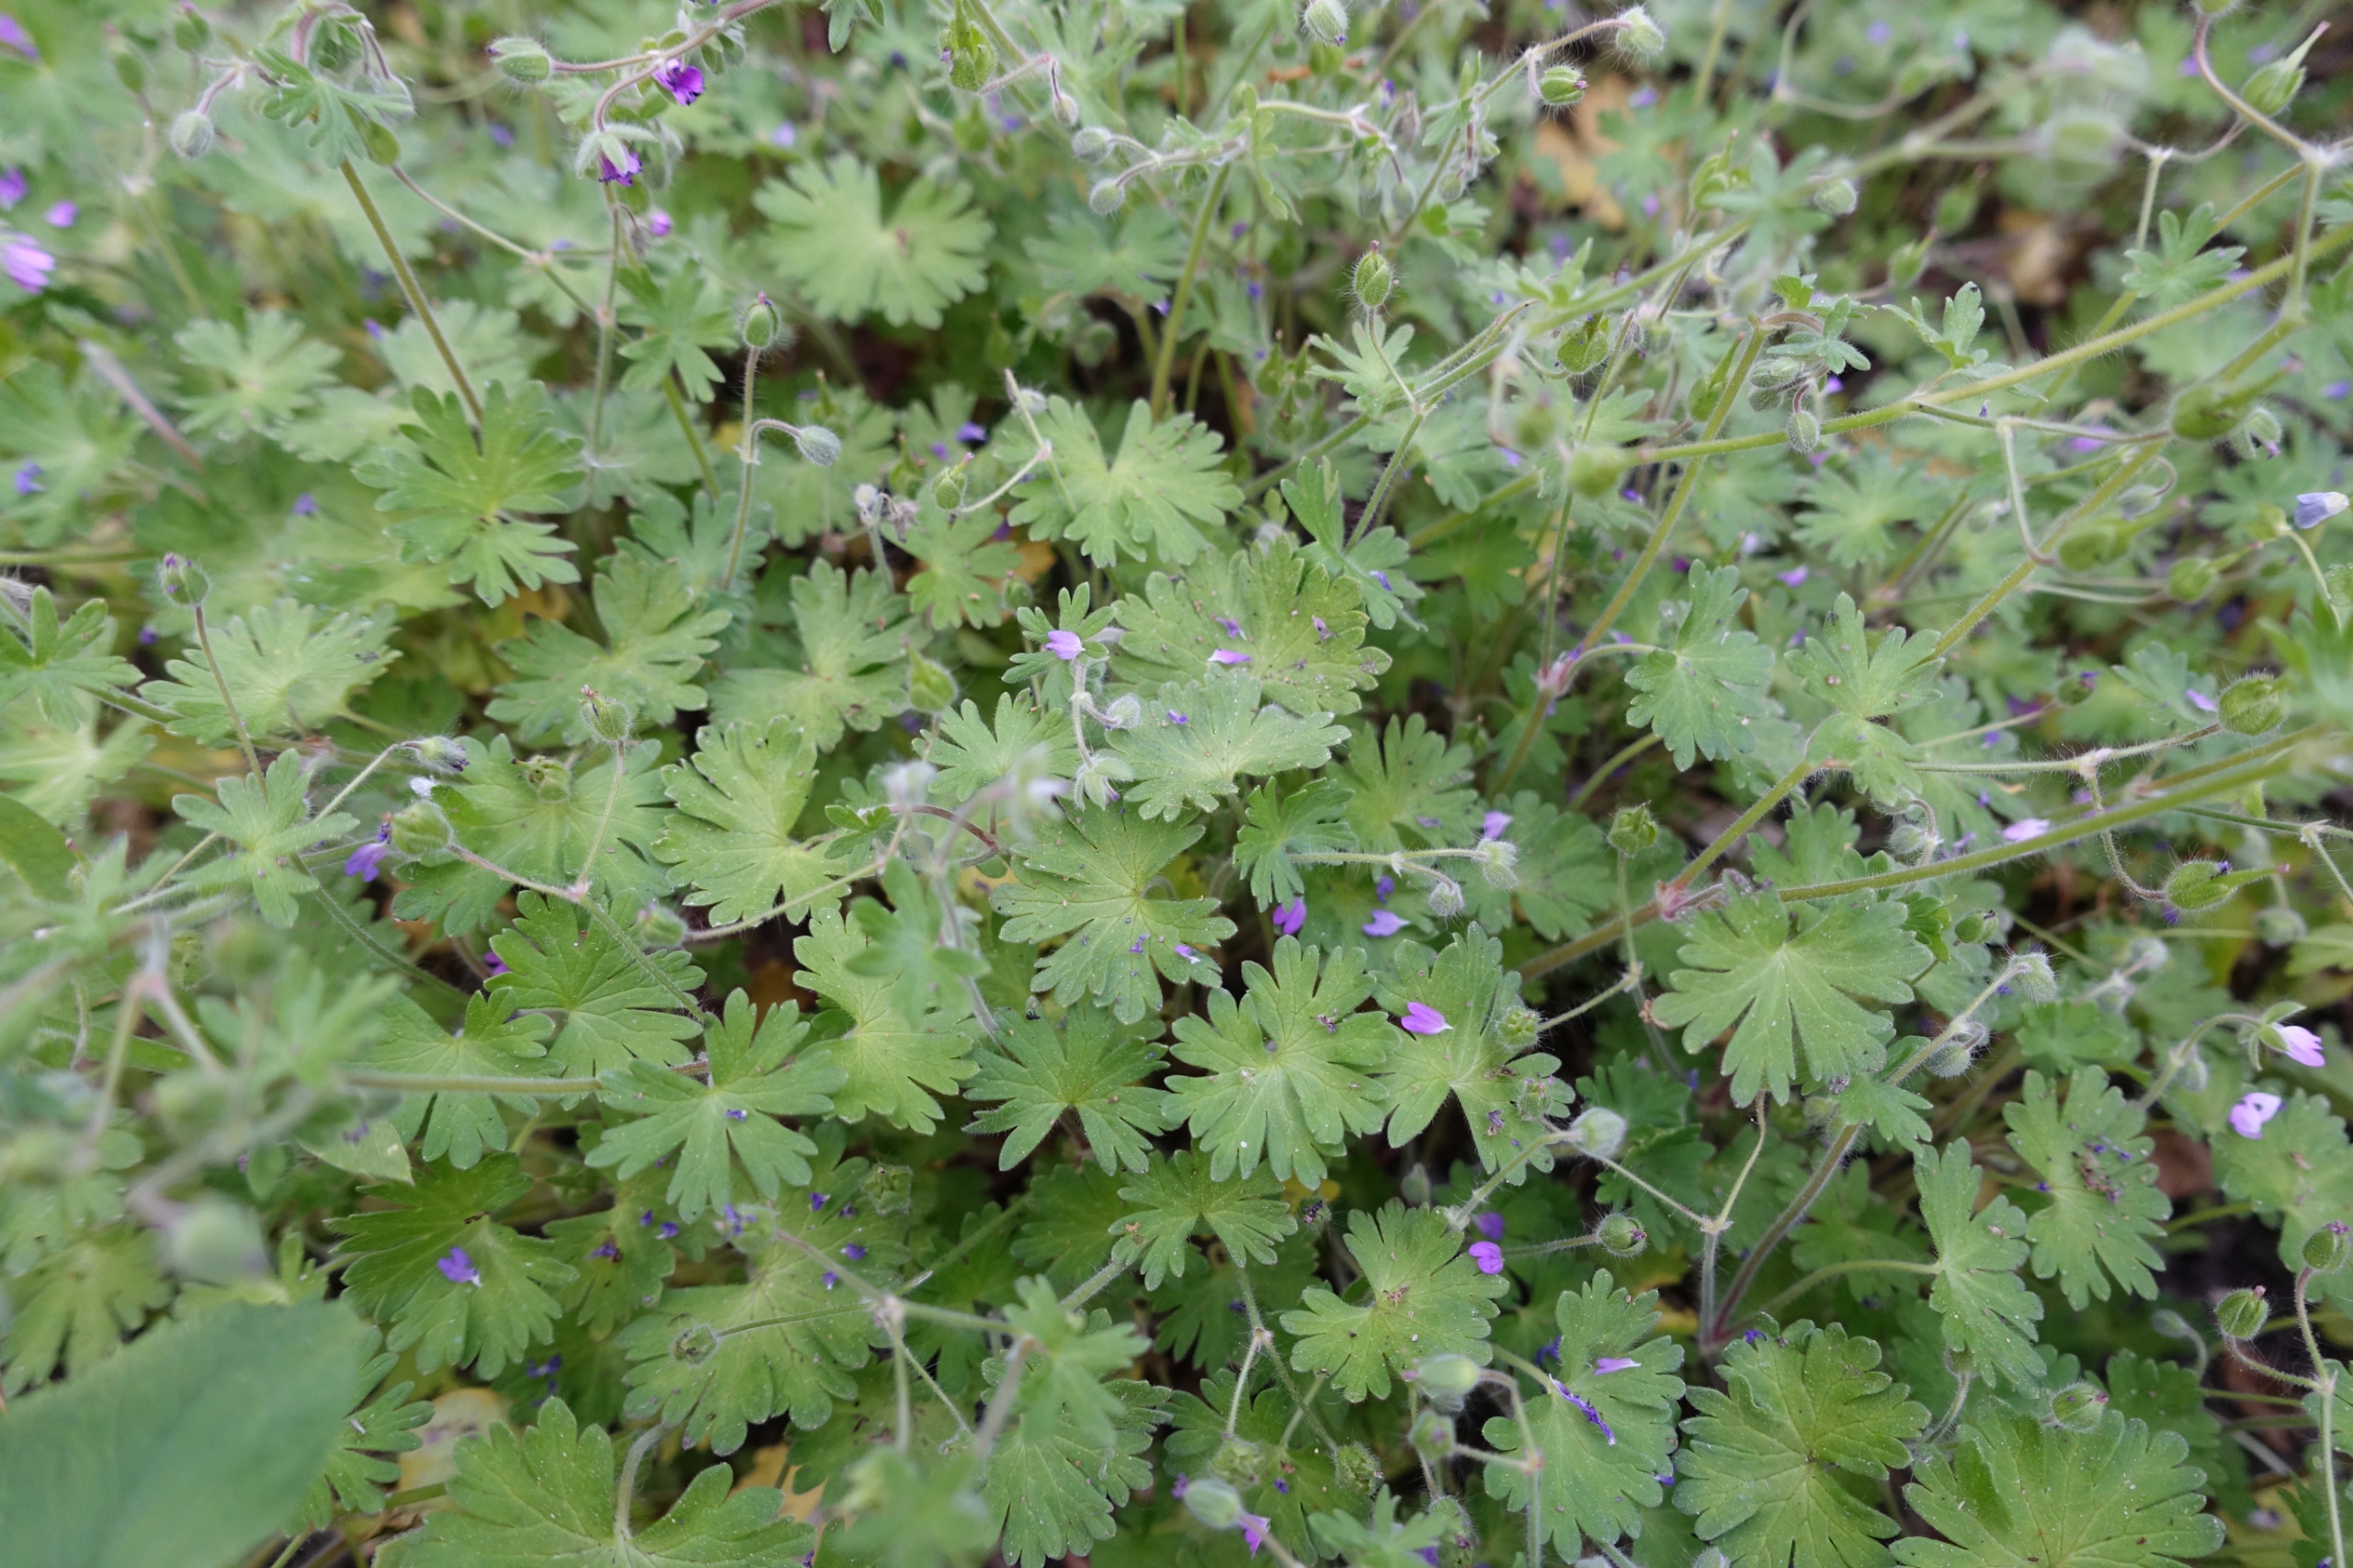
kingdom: Plantae
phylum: Tracheophyta
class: Magnoliopsida
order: Geraniales
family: Geraniaceae
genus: Geranium
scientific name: Geranium molle
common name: Blød storkenæb
